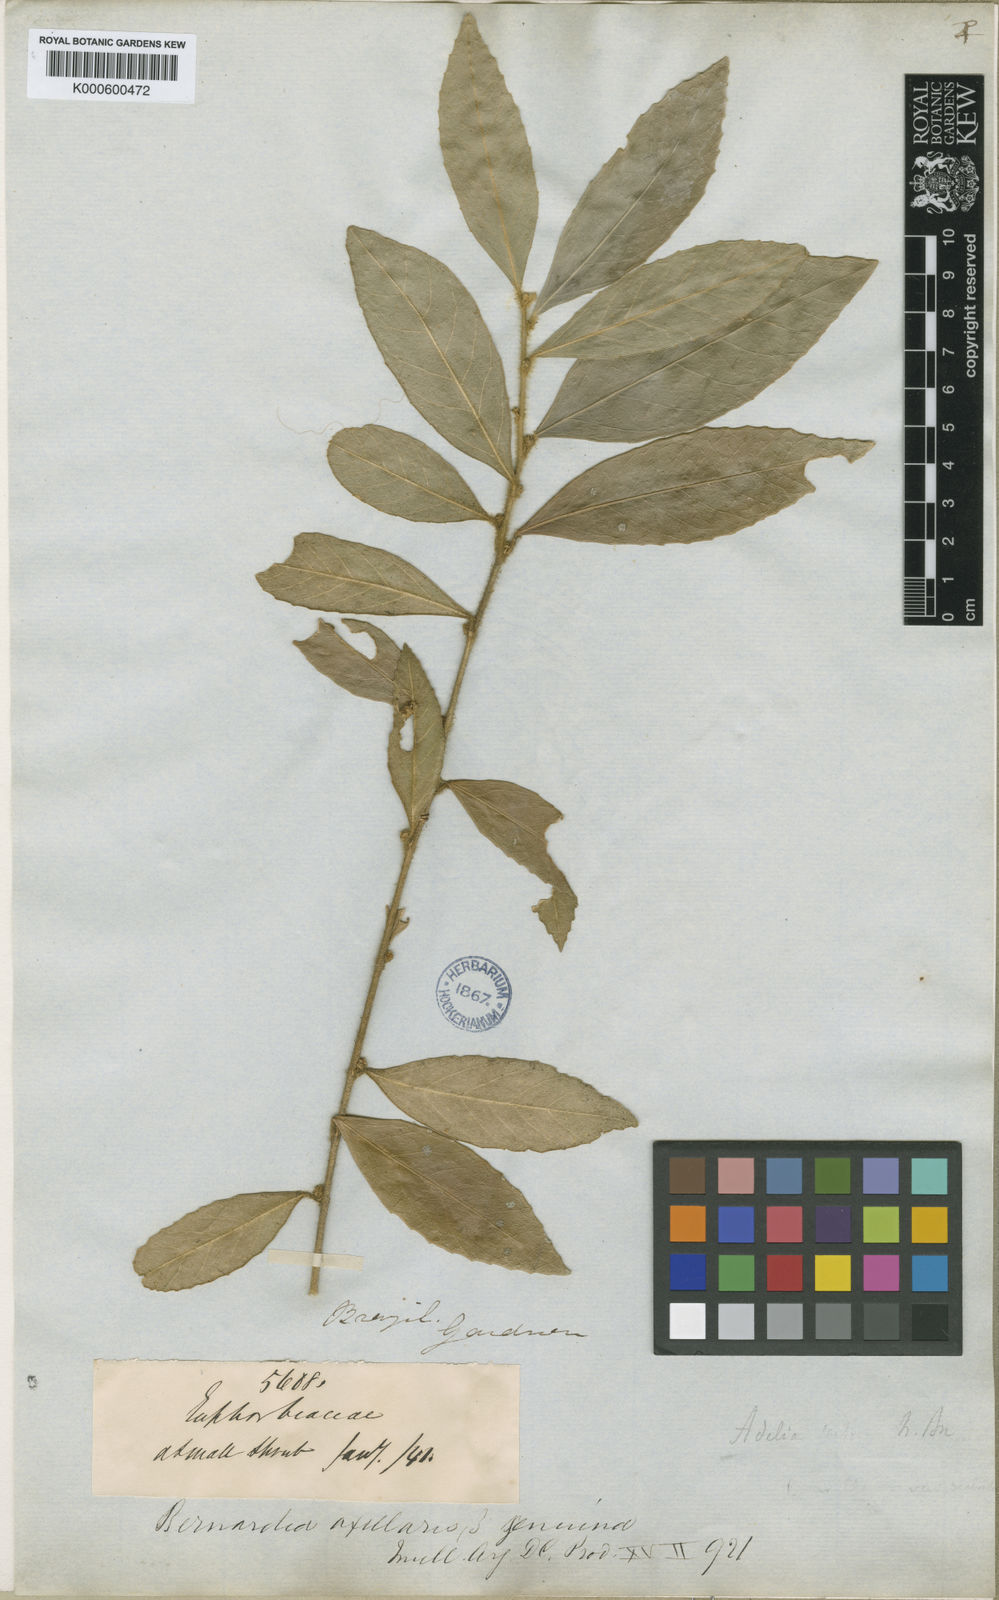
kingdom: Plantae
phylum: Tracheophyta
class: Magnoliopsida
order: Malpighiales
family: Euphorbiaceae
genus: Bernardia
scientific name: Bernardia
